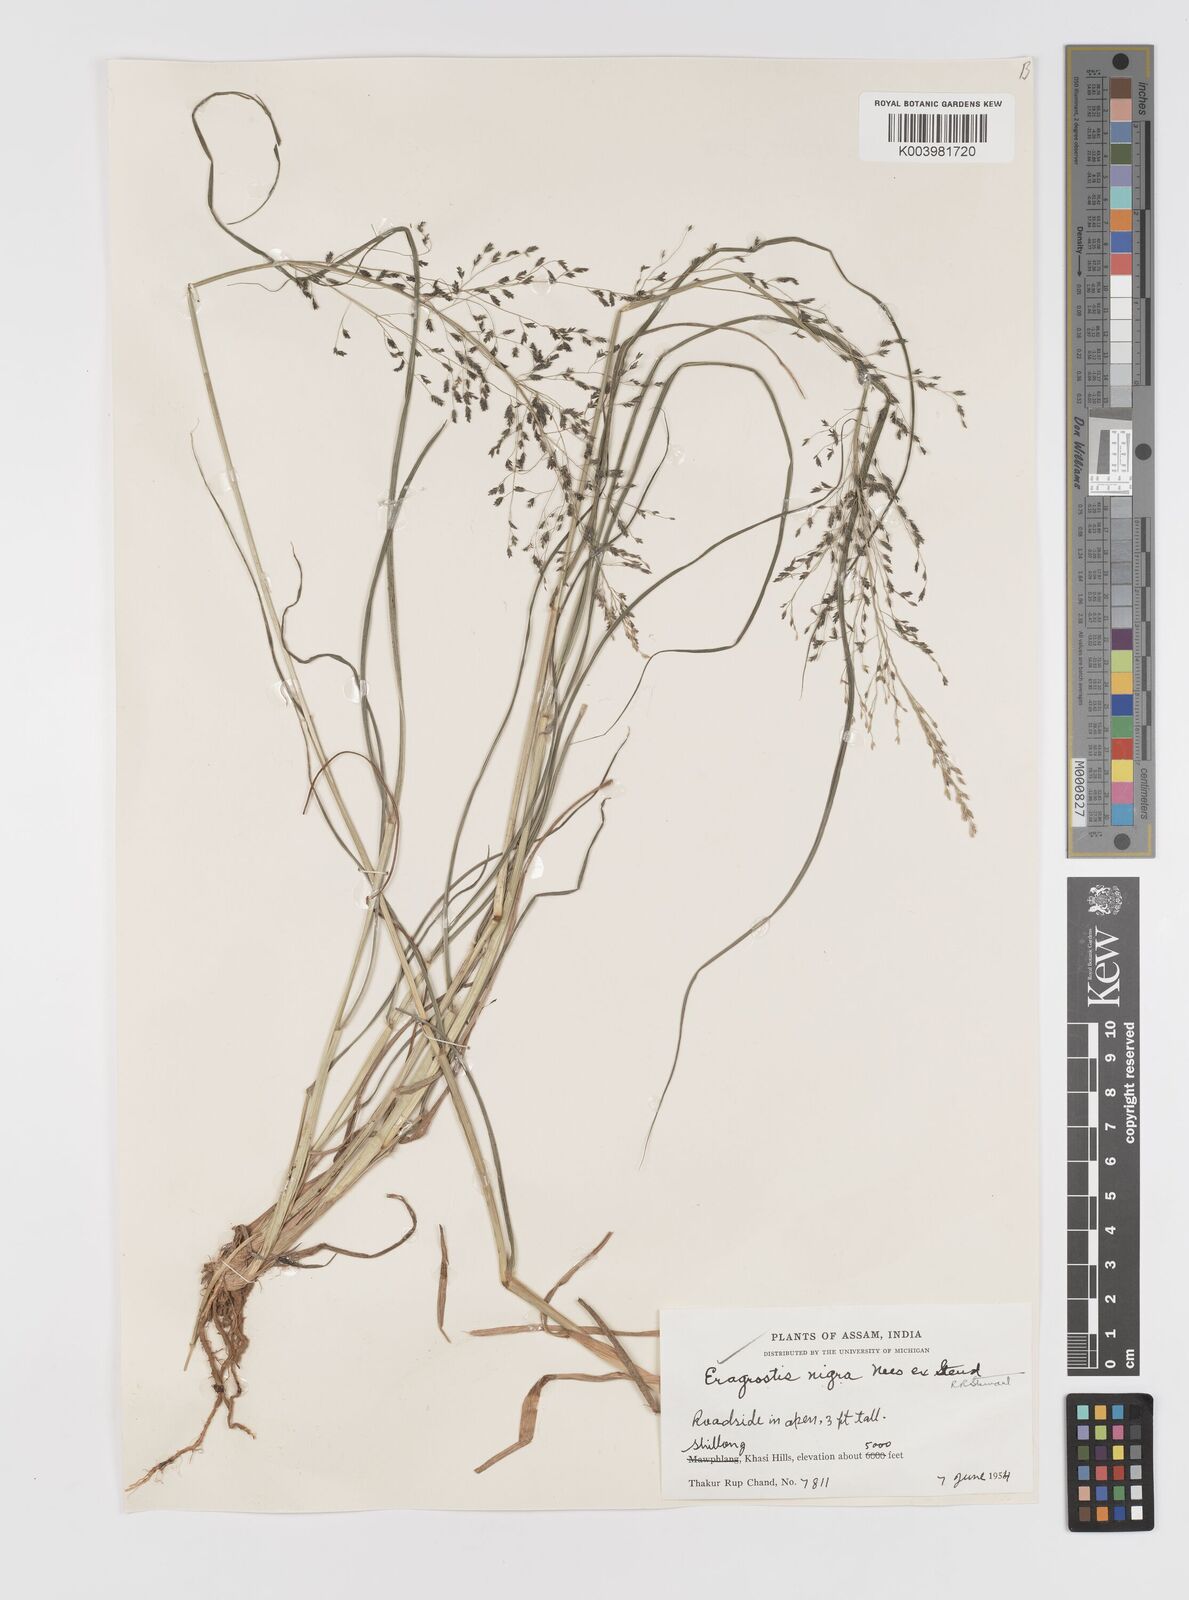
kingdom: Plantae
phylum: Tracheophyta
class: Liliopsida
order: Poales
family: Poaceae
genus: Eragrostis
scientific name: Eragrostis nigra
